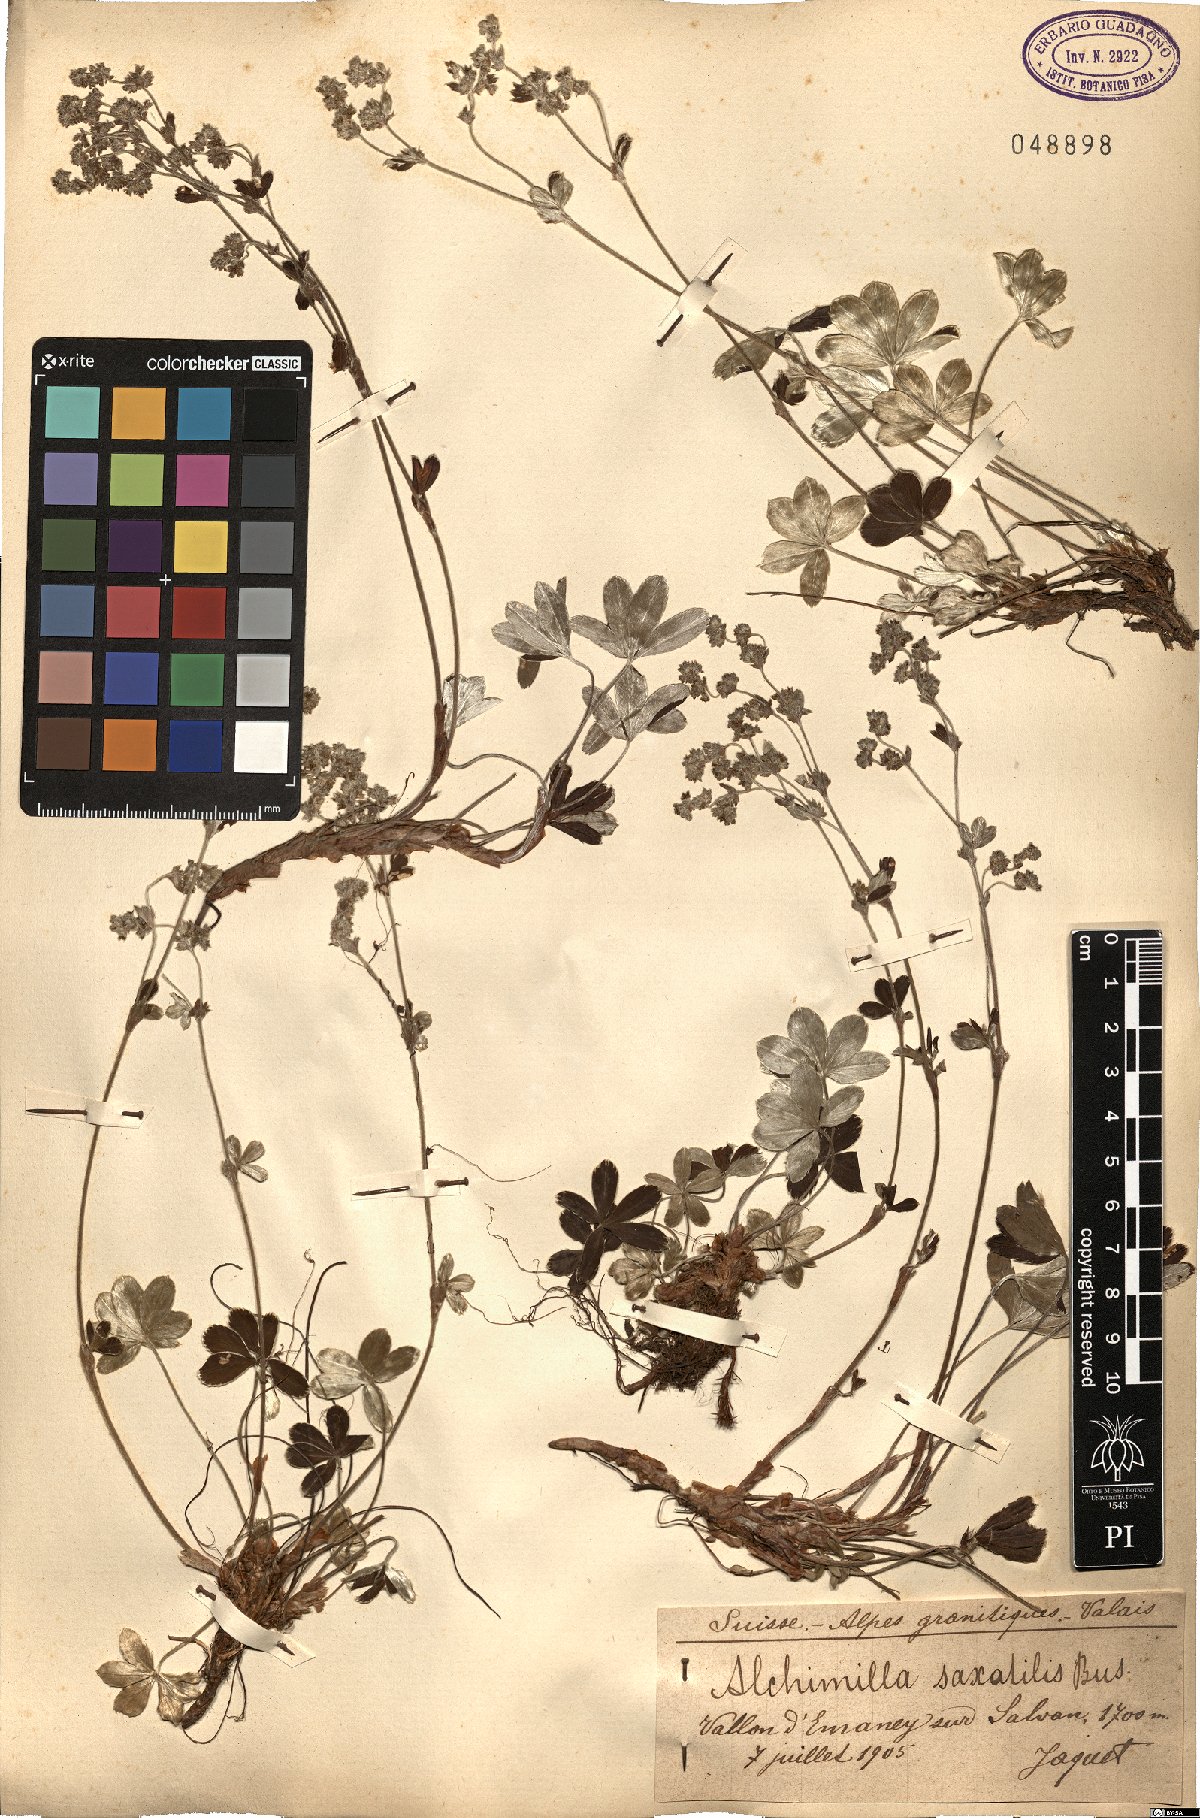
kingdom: Plantae
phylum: Tracheophyta
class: Magnoliopsida
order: Rosales
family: Rosaceae
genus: Alchemilla
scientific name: Alchemilla saxatilis
